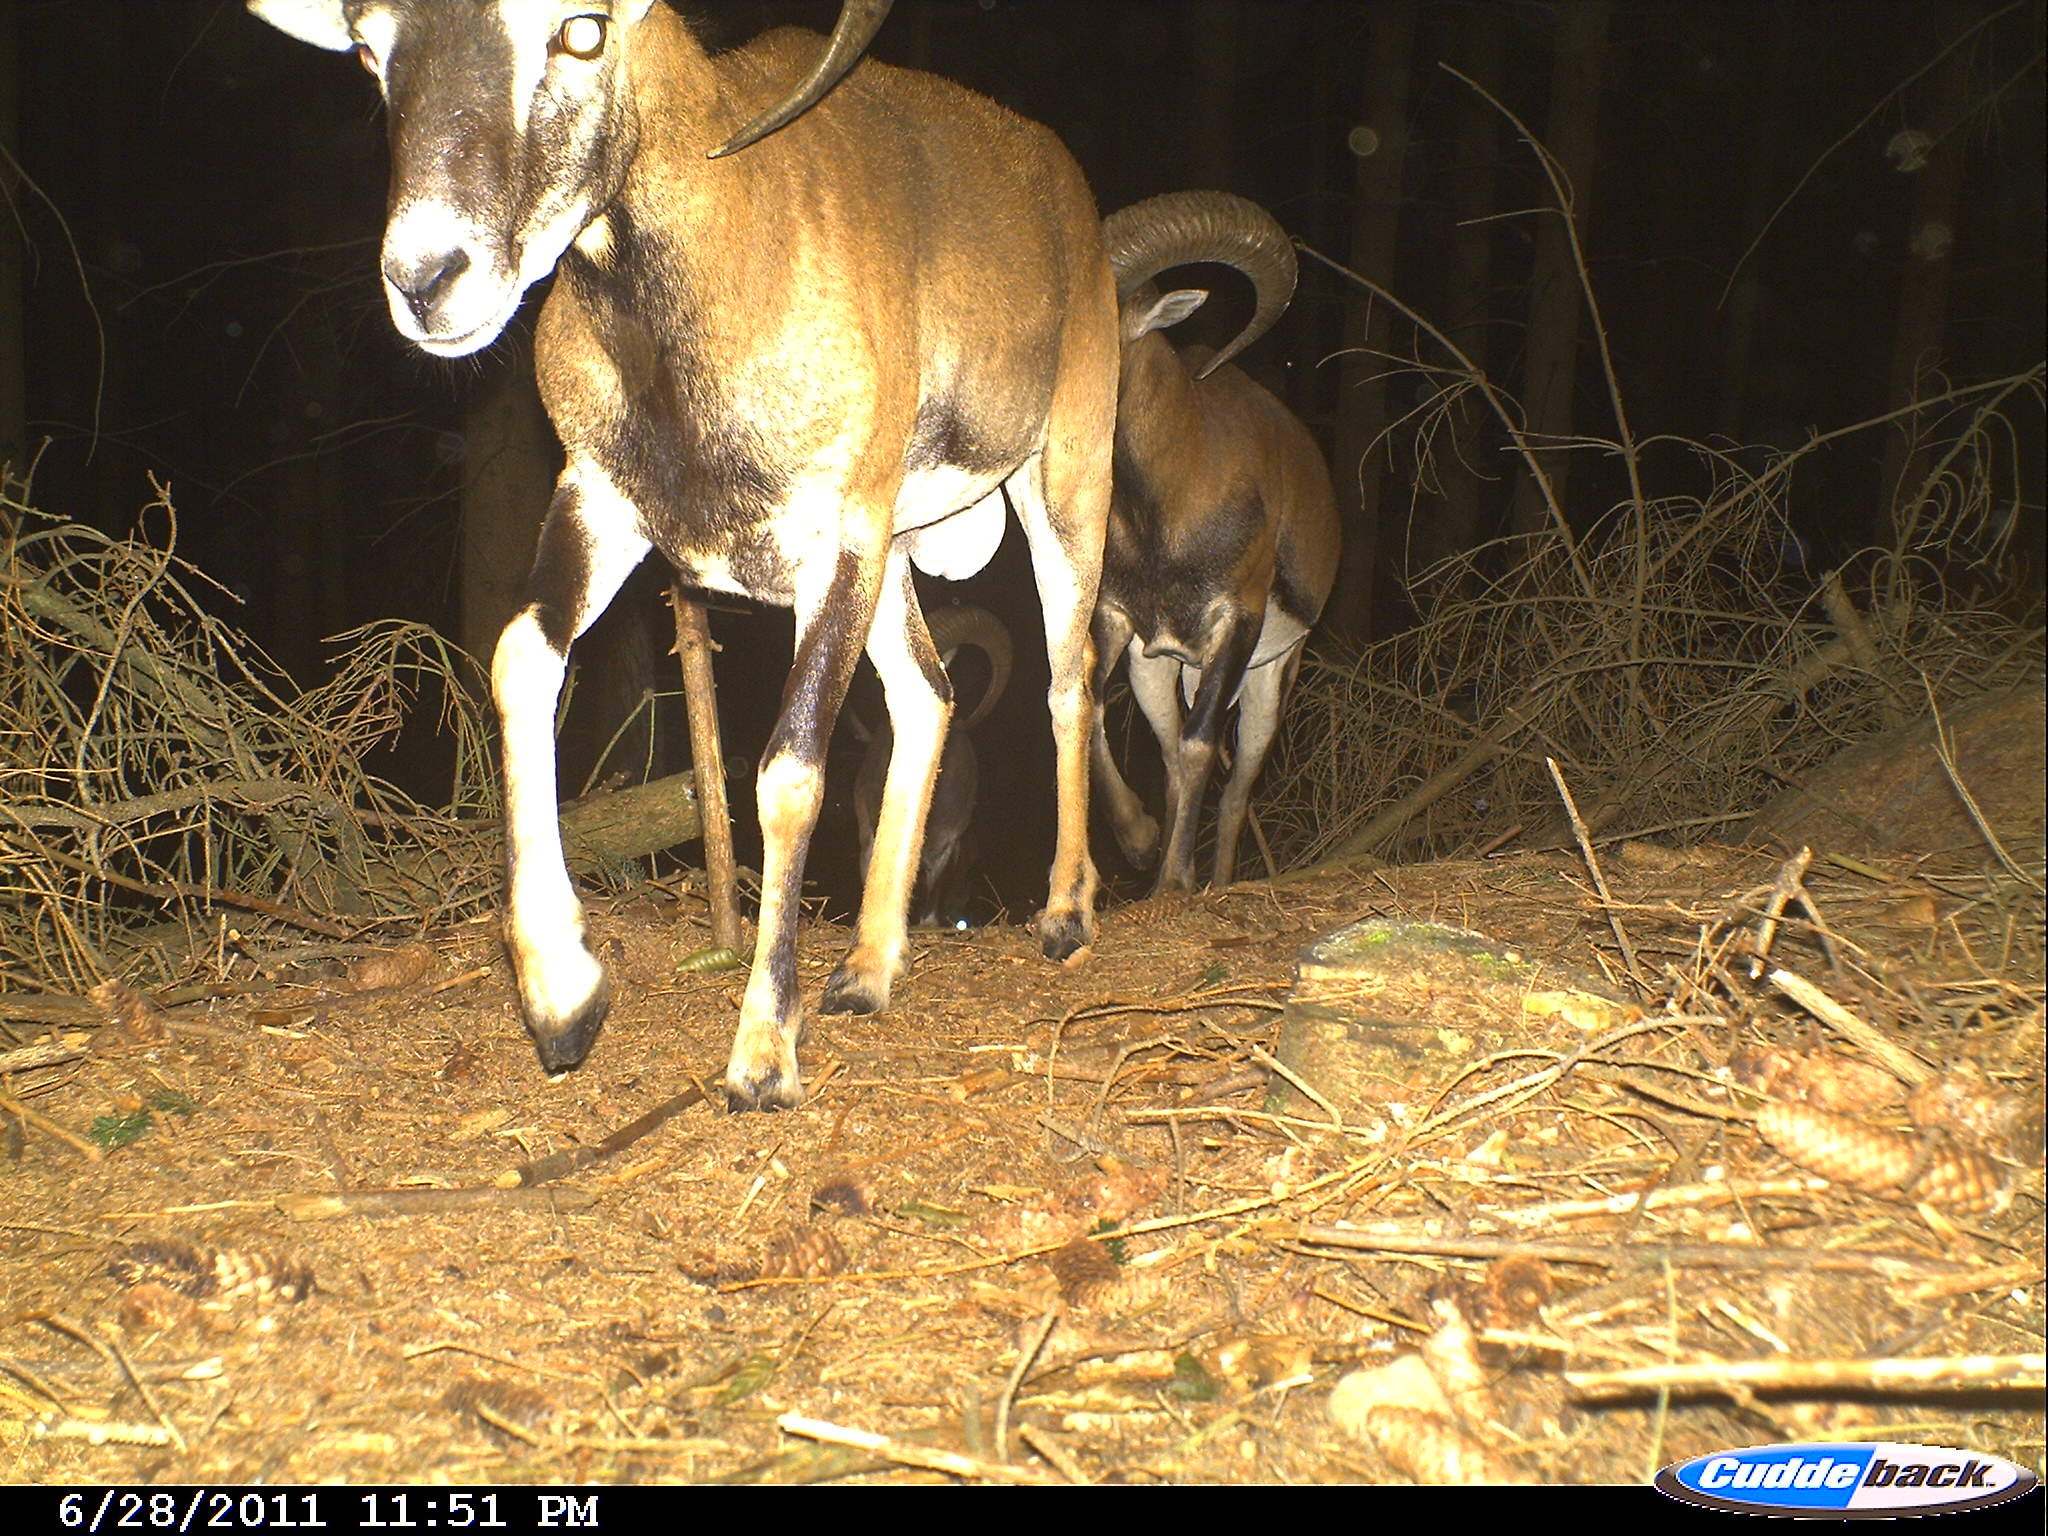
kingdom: Animalia
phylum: Chordata
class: Mammalia
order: Artiodactyla
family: Bovidae
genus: Ovis
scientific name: Ovis ammon
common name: Argali
